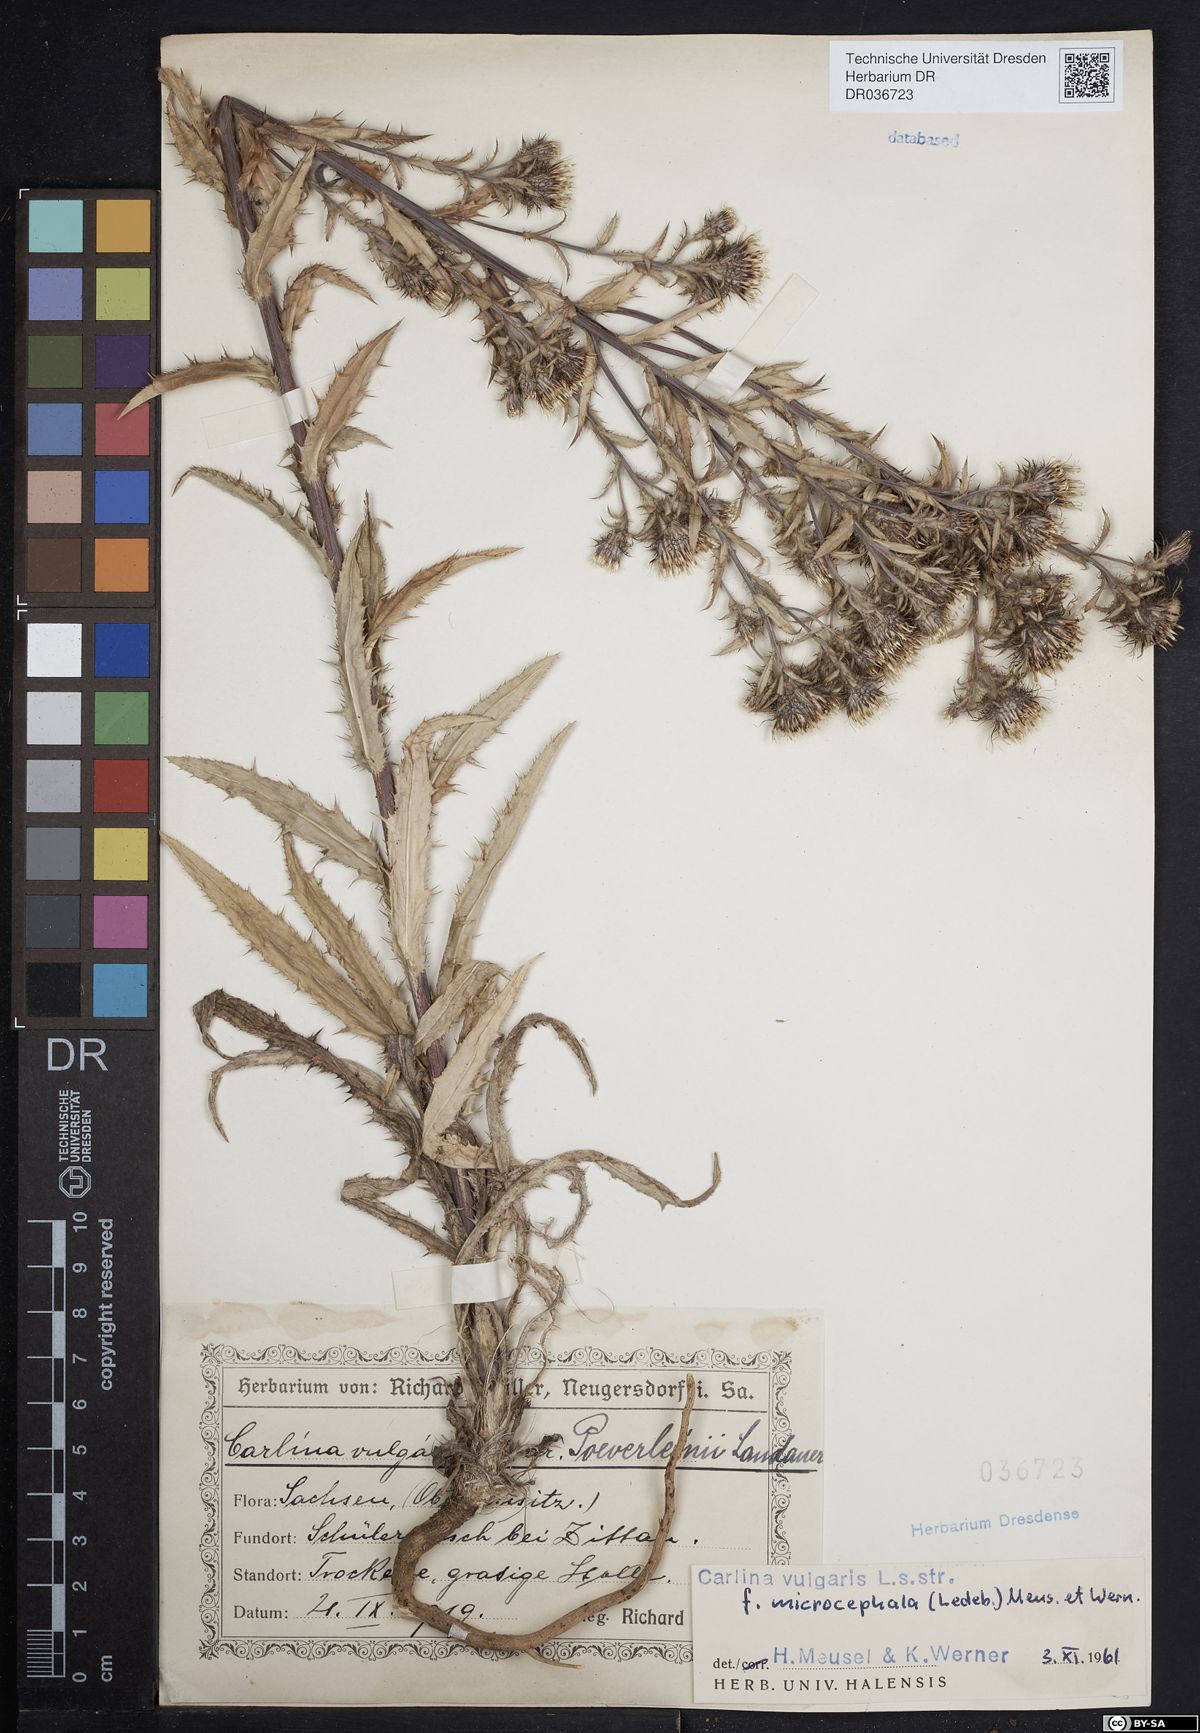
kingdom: Plantae
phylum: Tracheophyta
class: Magnoliopsida
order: Asterales
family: Asteraceae
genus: Carlina
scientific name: Carlina vulgaris
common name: Carline thistle
